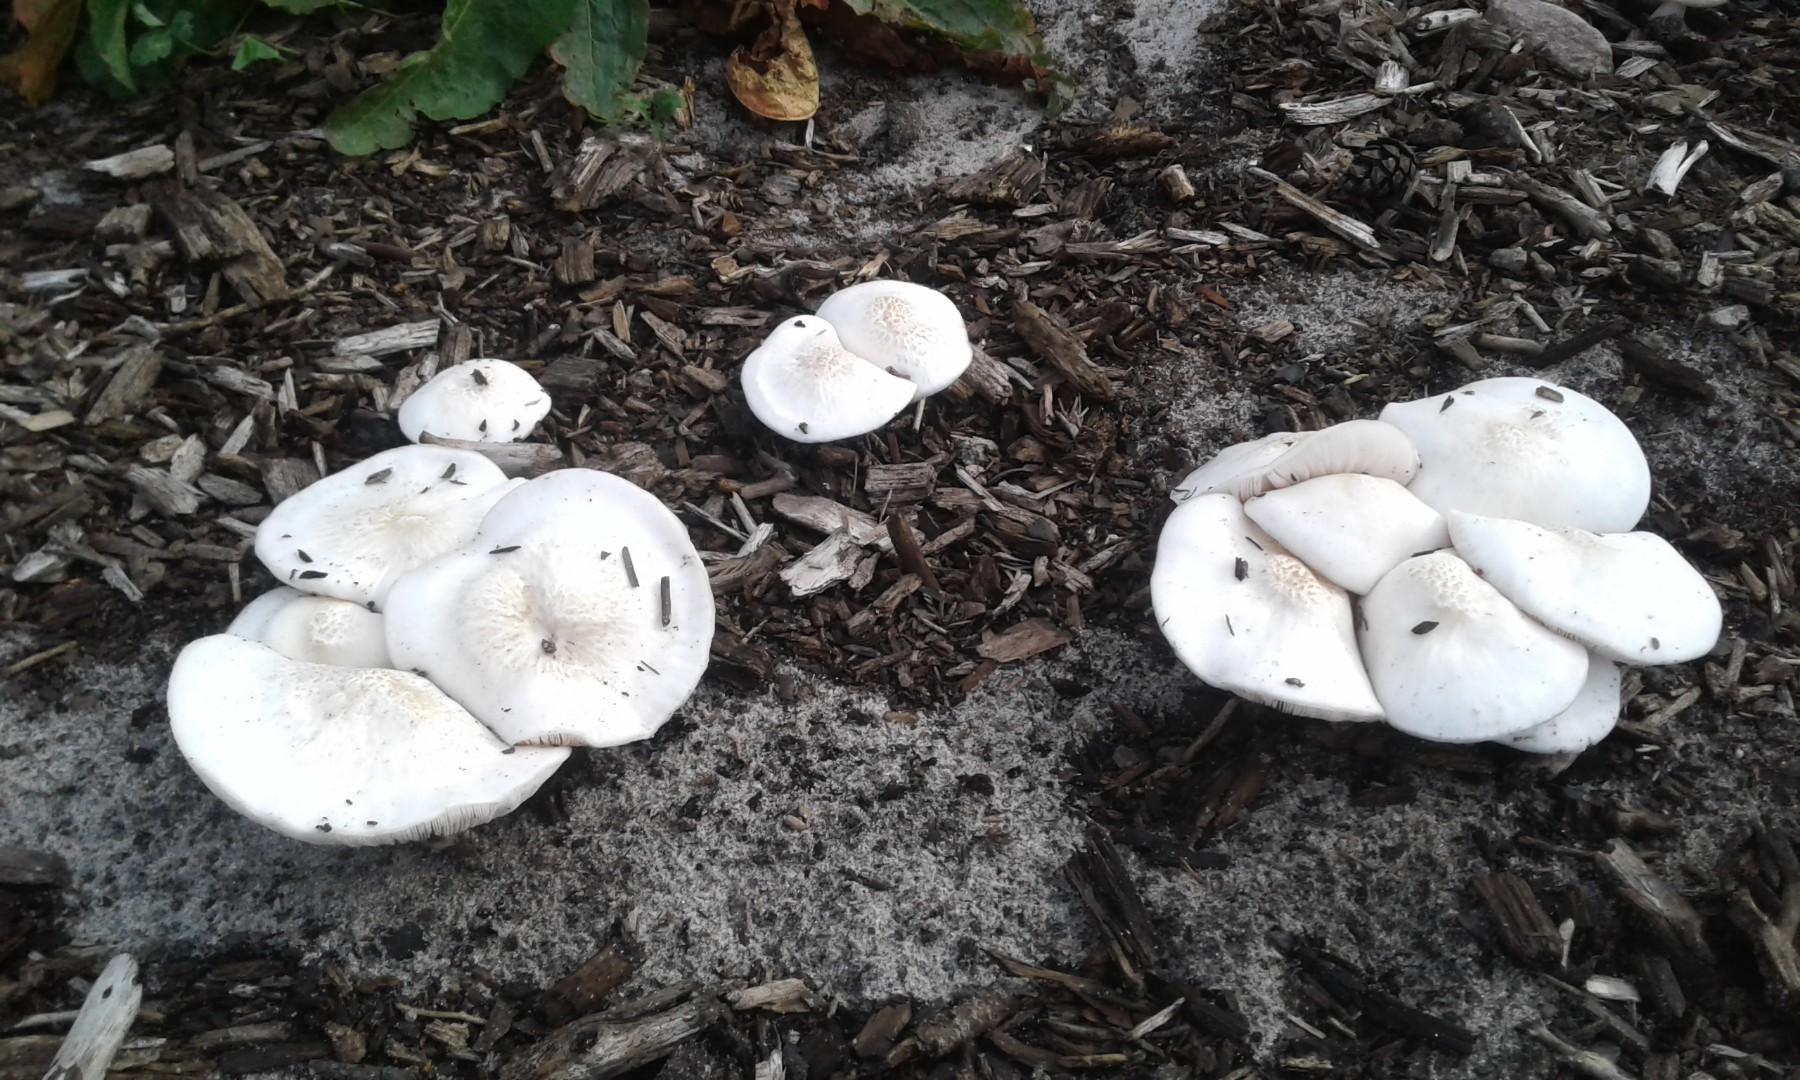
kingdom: Fungi
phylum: Basidiomycota
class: Agaricomycetes
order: Agaricales
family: Pluteaceae
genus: Pluteus
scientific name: Pluteus petasatus
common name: savsmulds-skærmhat
